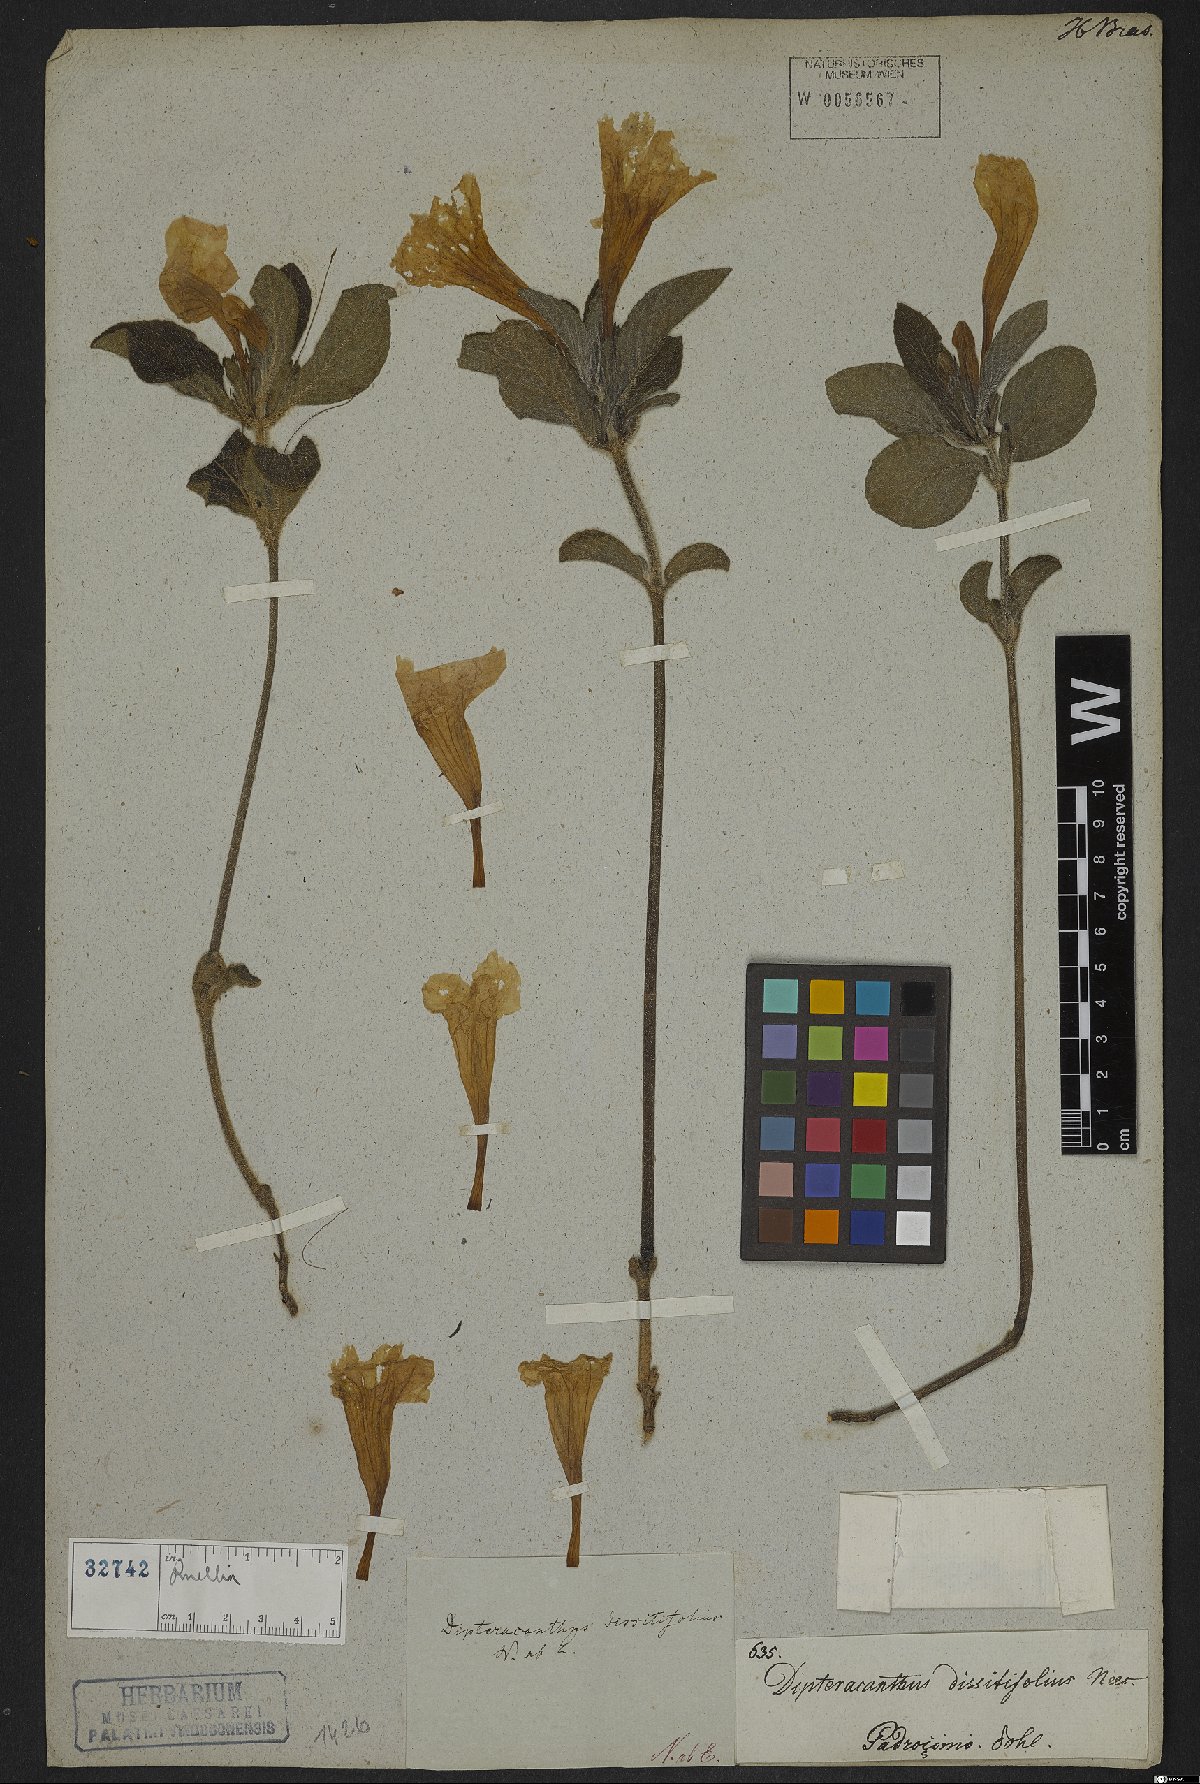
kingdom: Plantae
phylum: Tracheophyta
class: Magnoliopsida
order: Lamiales
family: Acanthaceae
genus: Ruellia
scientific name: Ruellia
